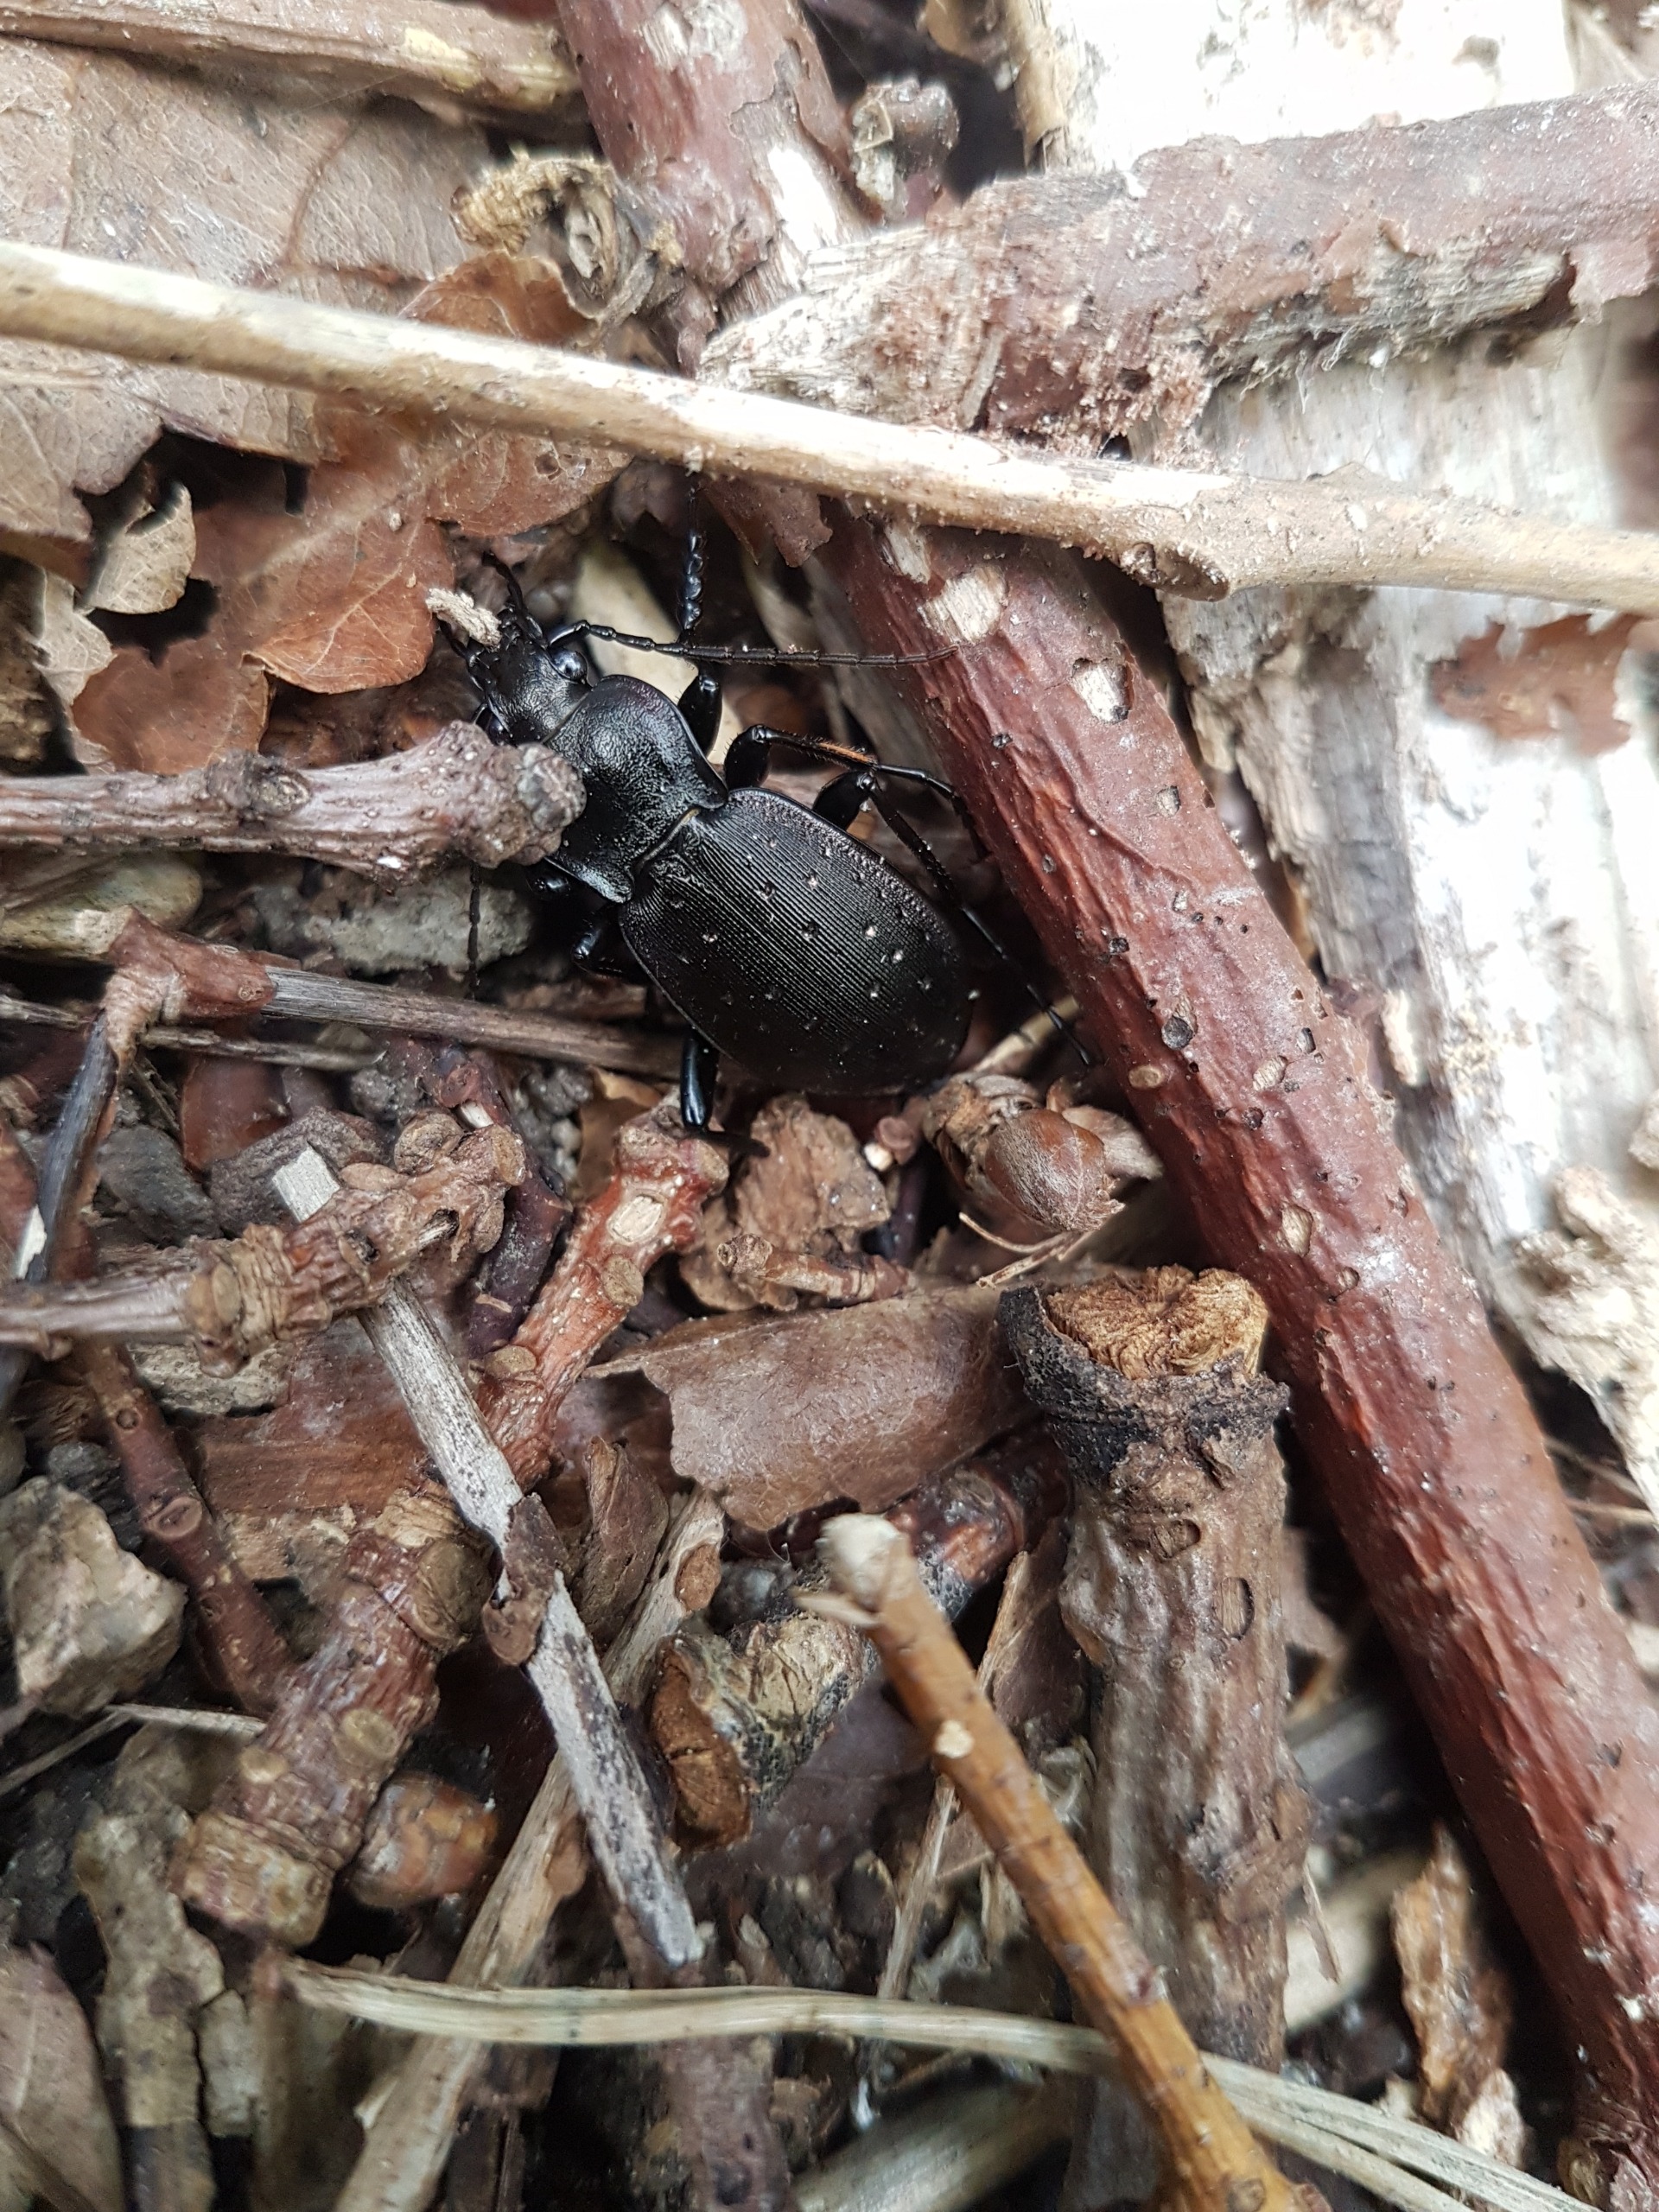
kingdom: Animalia
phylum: Arthropoda
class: Insecta
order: Coleoptera
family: Carabidae
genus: Carabus
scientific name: Carabus hortensis
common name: Guldpletløber
